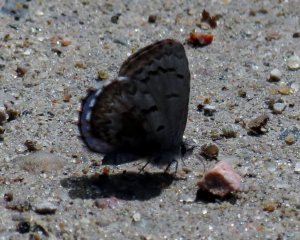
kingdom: Animalia
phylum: Arthropoda
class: Insecta
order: Lepidoptera
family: Lycaenidae
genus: Celastrina
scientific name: Celastrina lucia
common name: Northern Spring Azure
